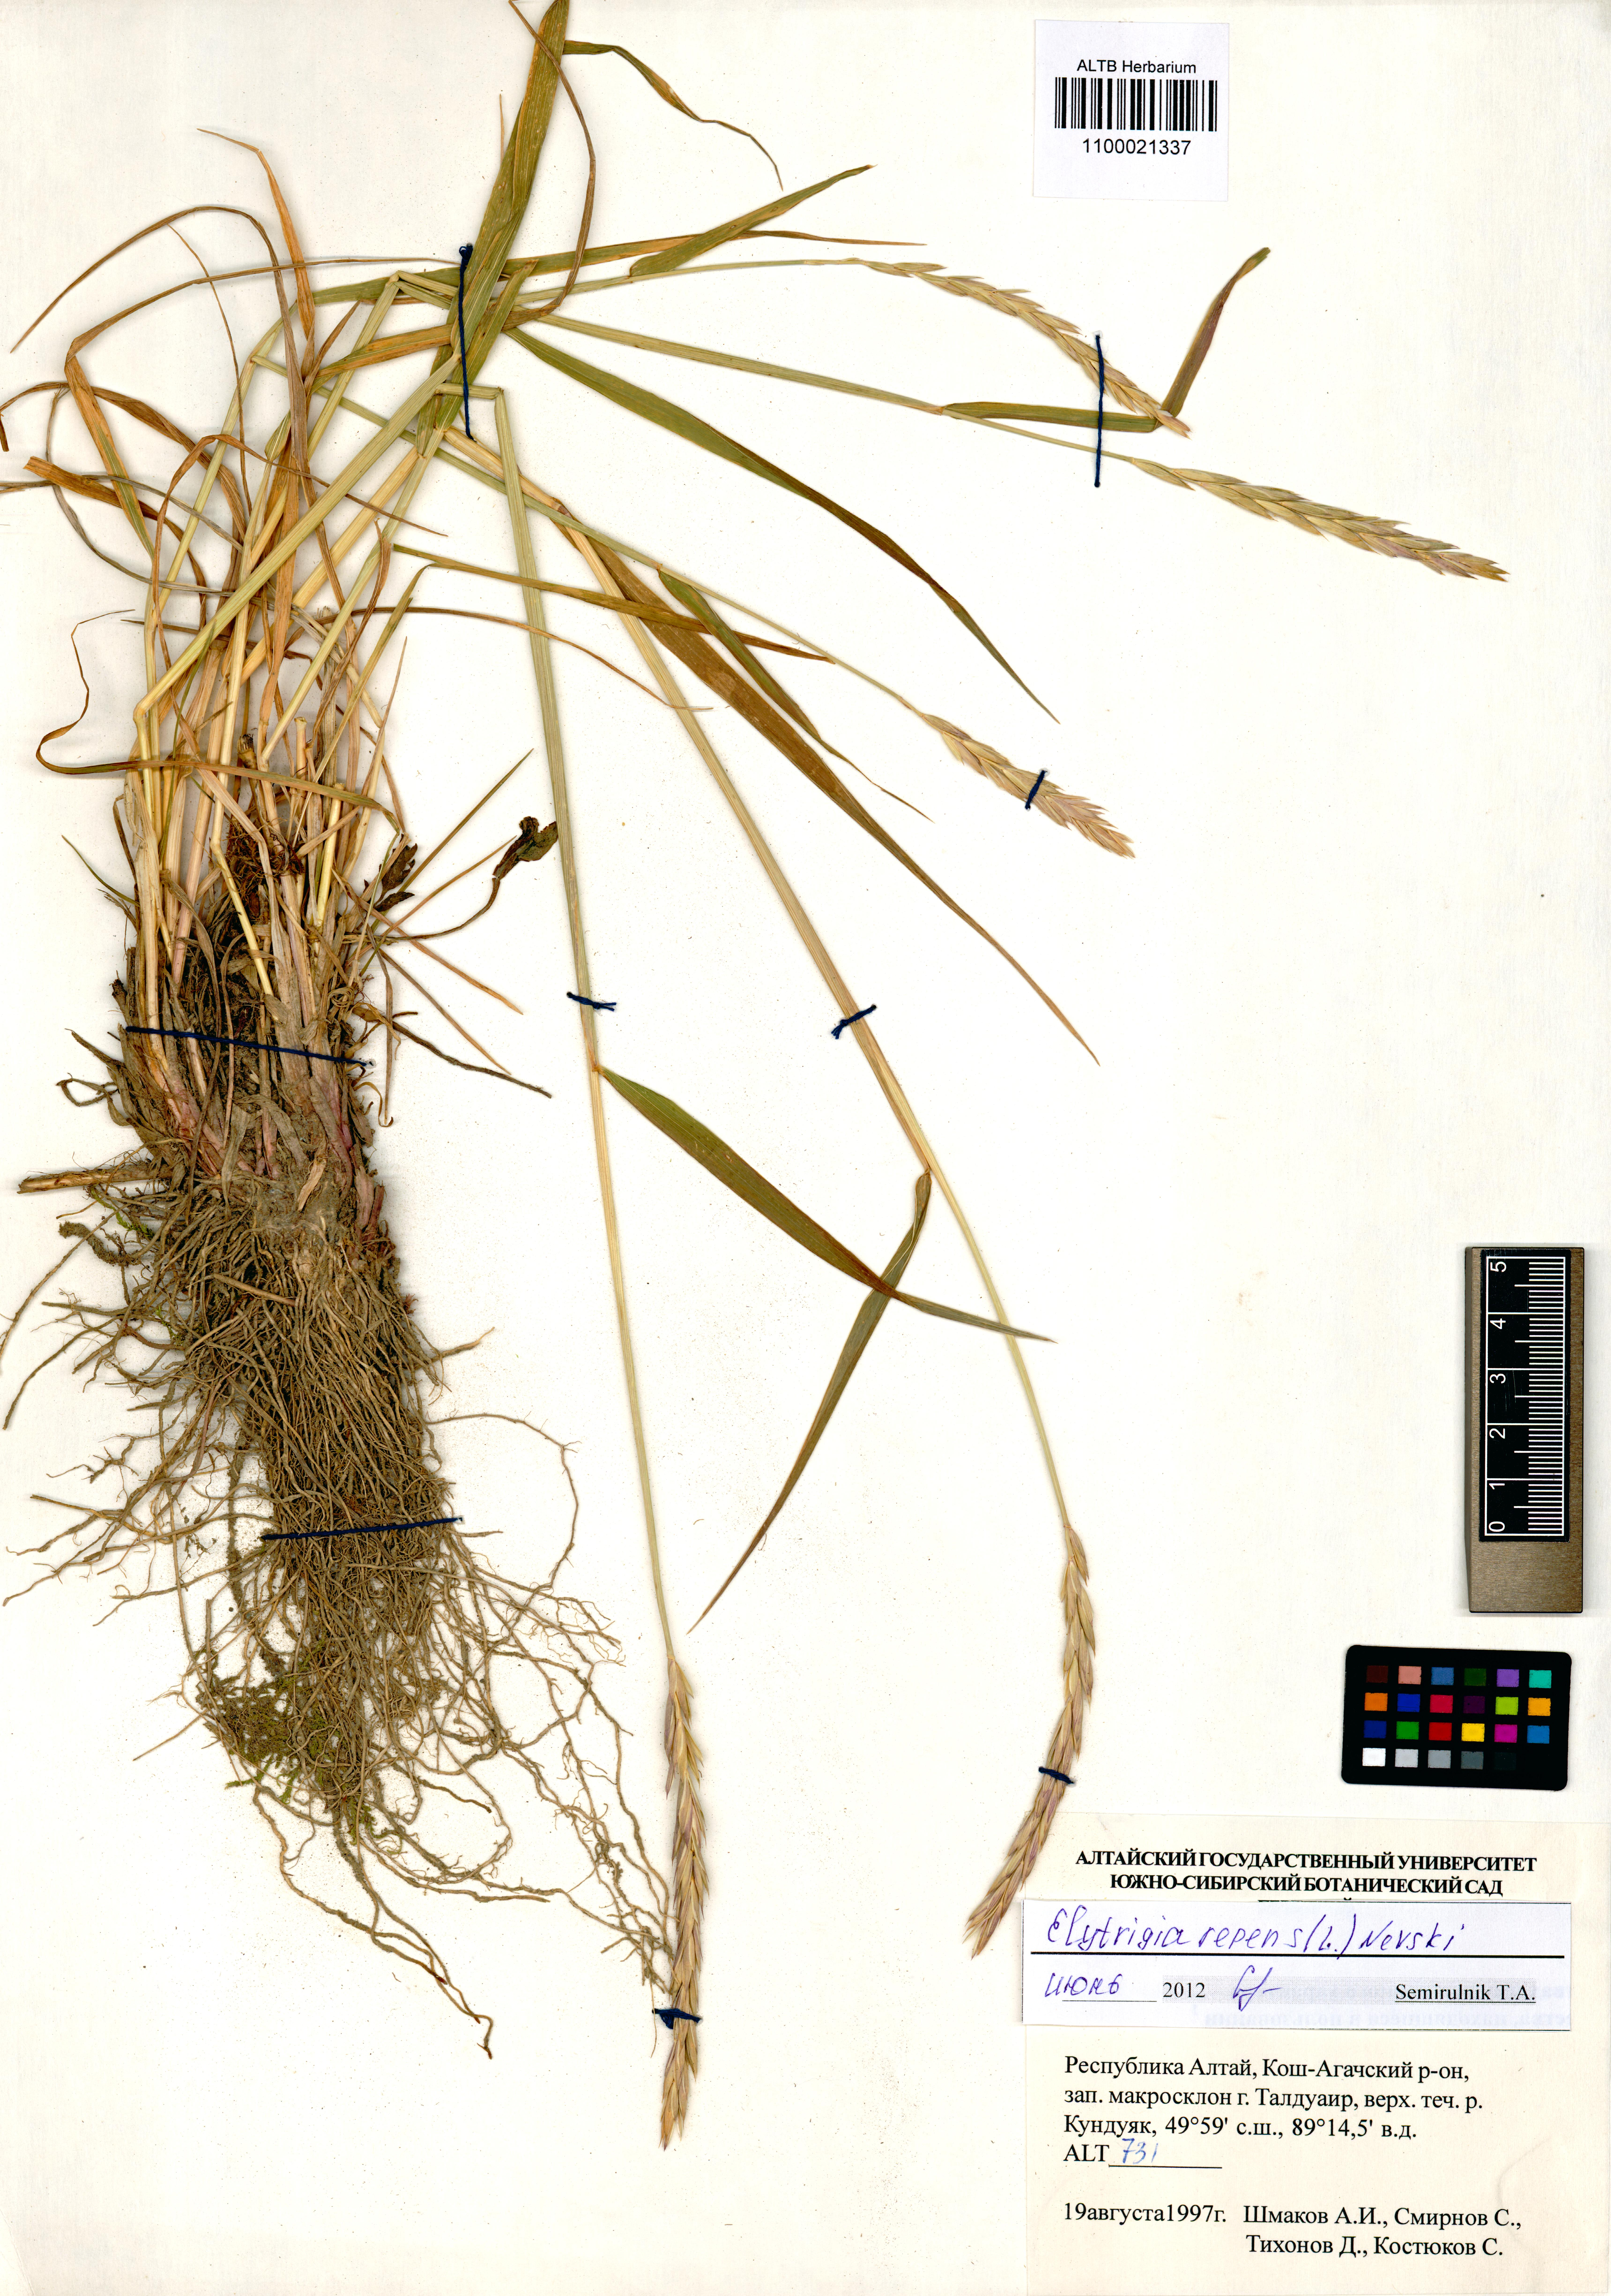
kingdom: Plantae
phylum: Tracheophyta
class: Liliopsida
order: Poales
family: Poaceae
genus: Elymus
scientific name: Elymus repens
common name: Quackgrass
